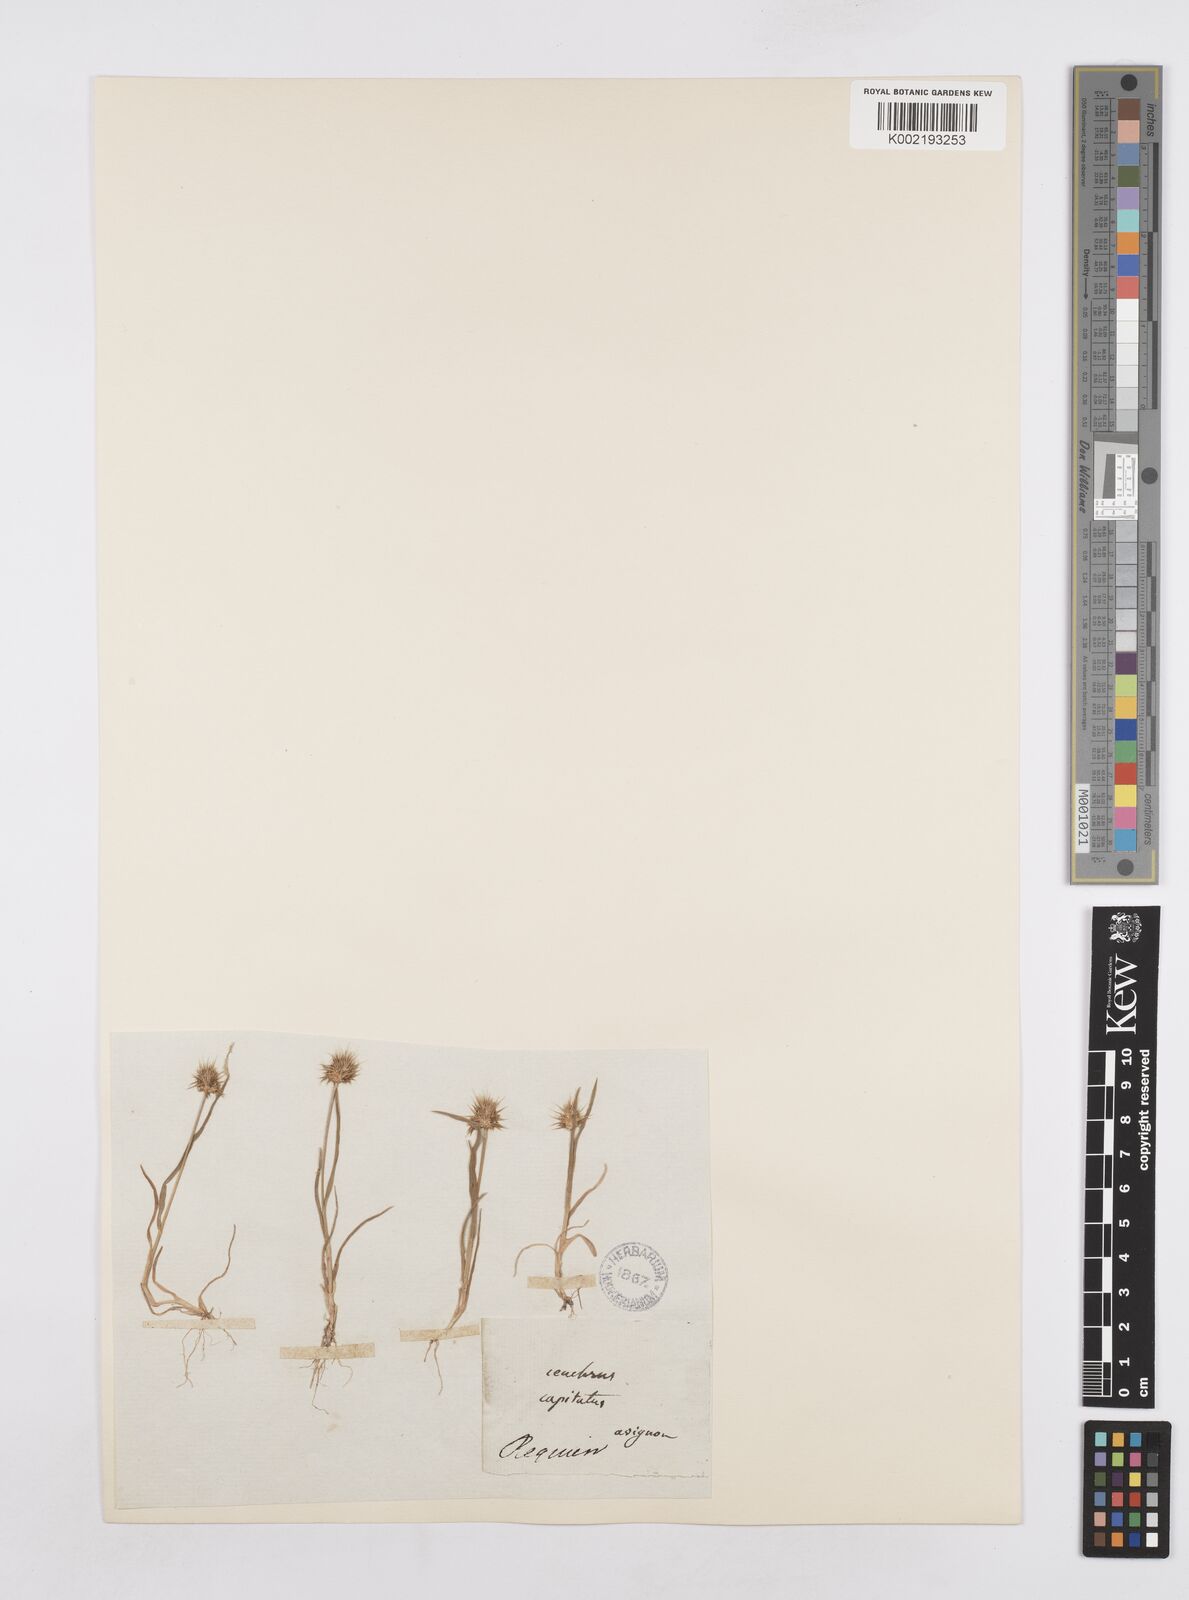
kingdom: Plantae
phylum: Tracheophyta
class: Liliopsida
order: Poales
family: Poaceae
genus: Echinaria
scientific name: Echinaria capitata
